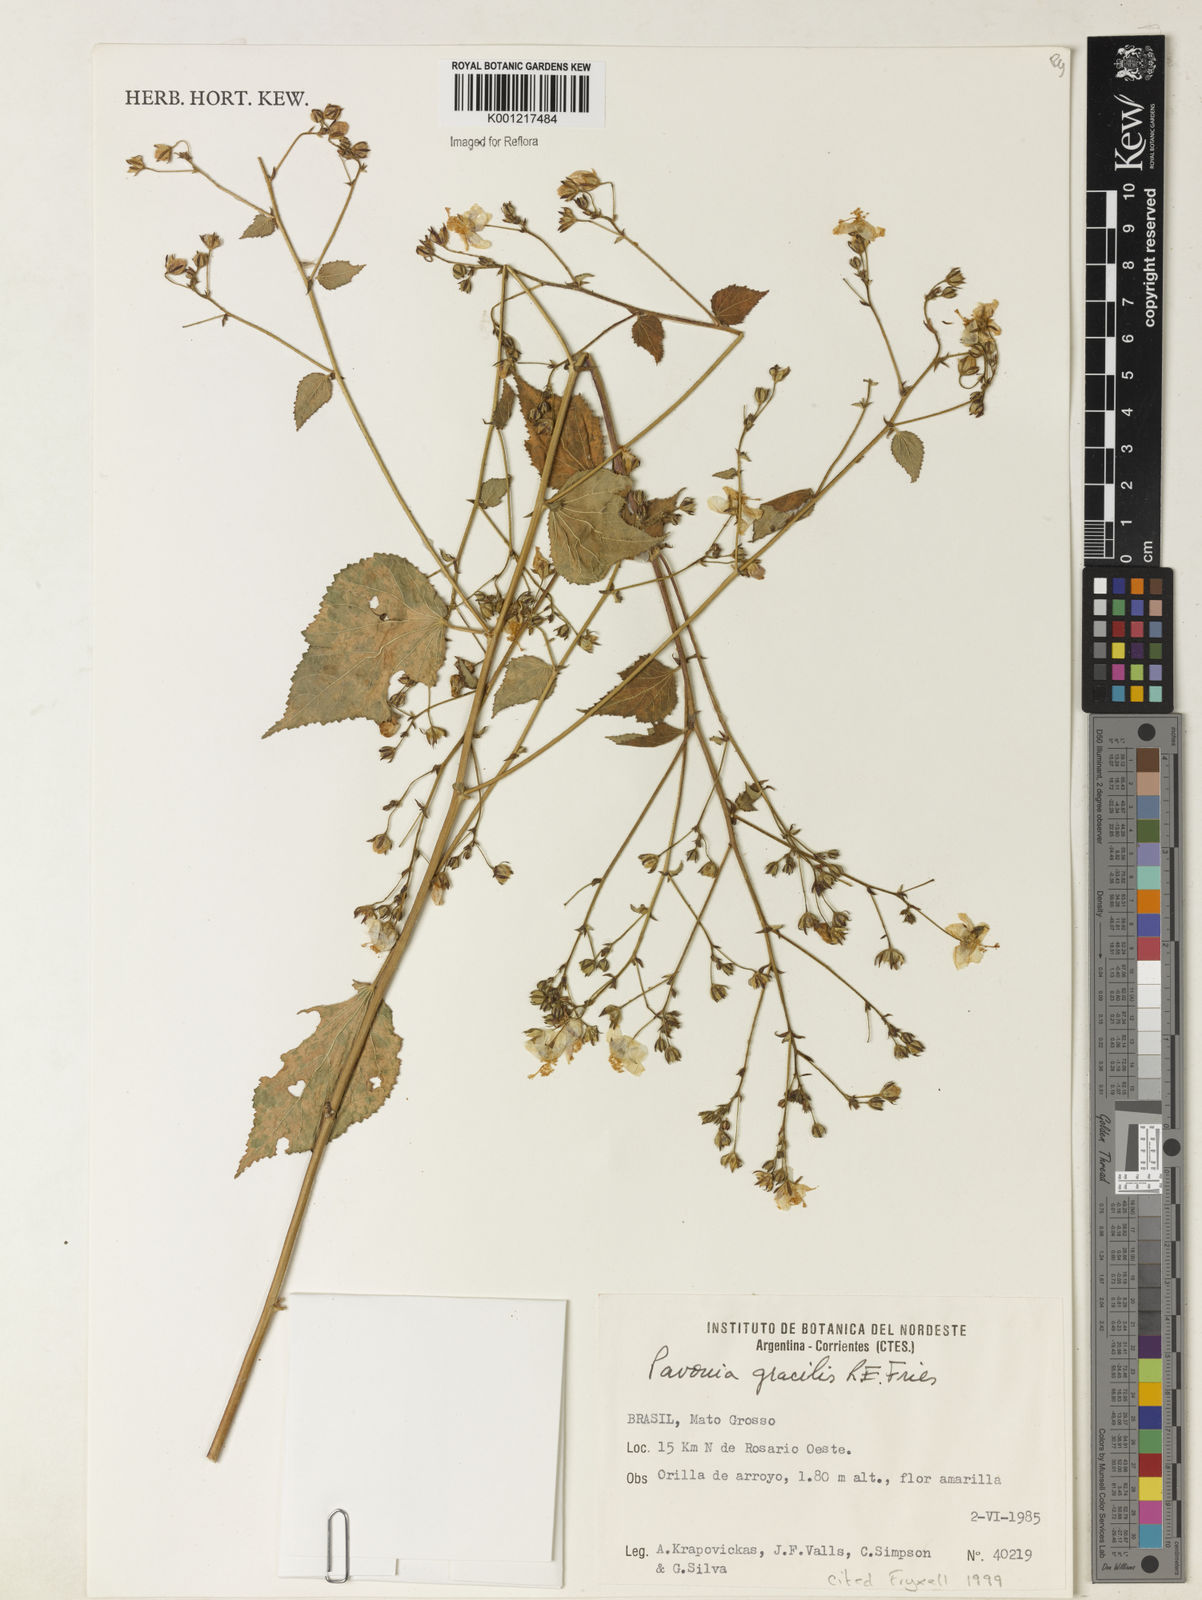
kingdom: Plantae
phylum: Tracheophyta
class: Magnoliopsida
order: Malvales
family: Malvaceae
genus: Pavonia
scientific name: Pavonia gracilis
